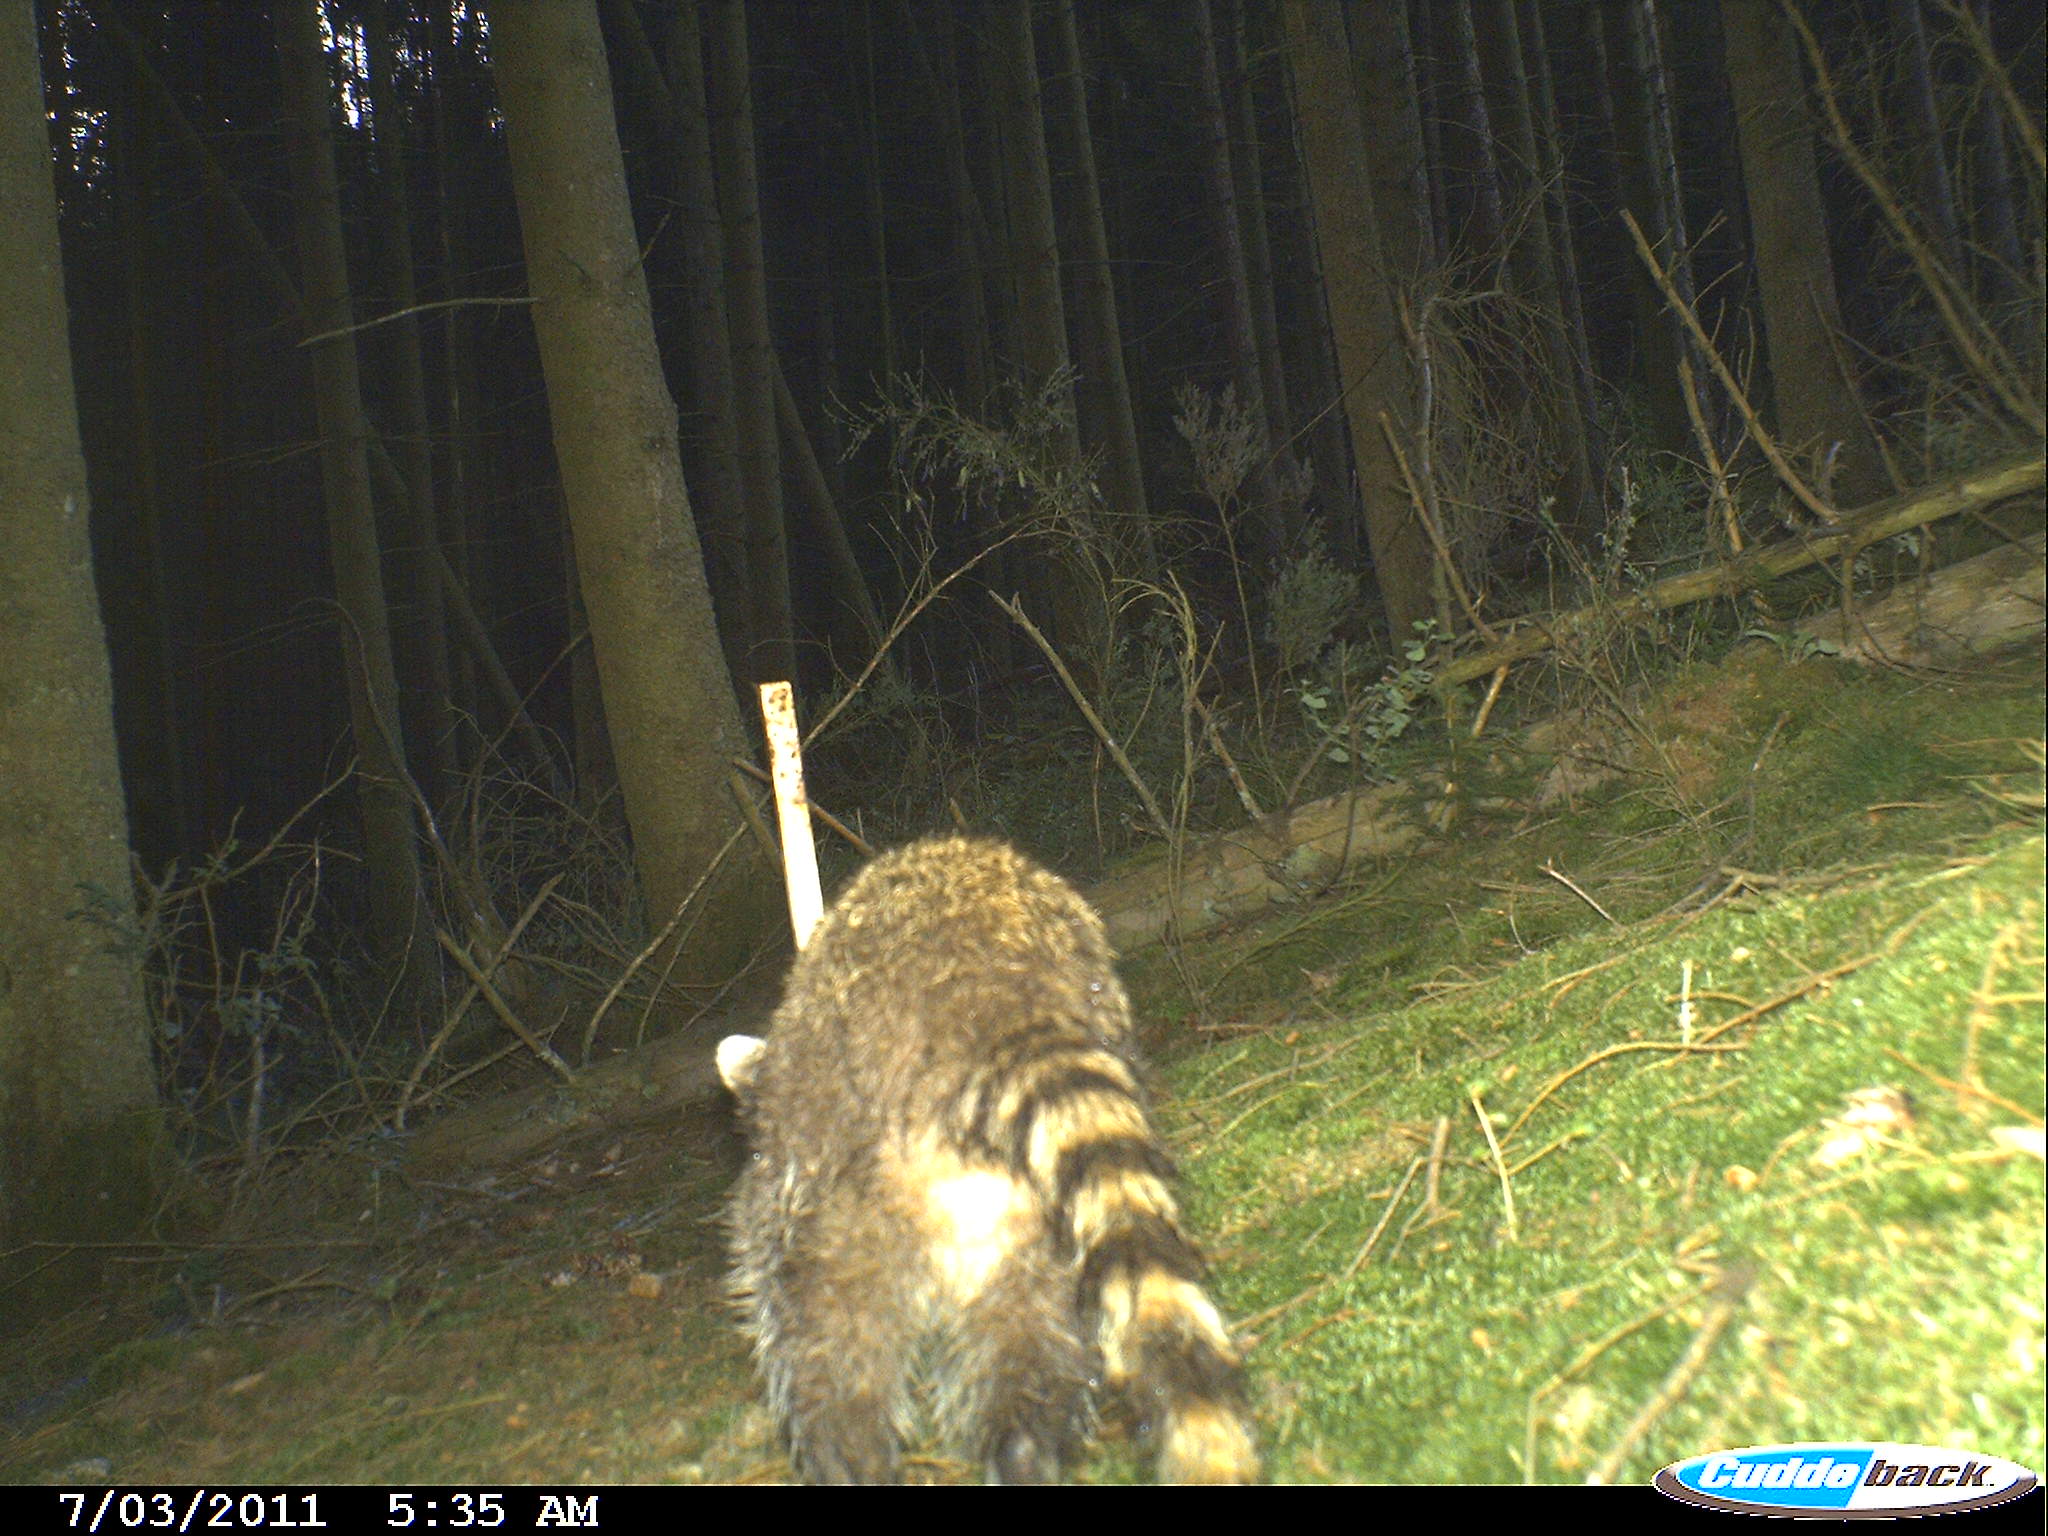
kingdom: Animalia
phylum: Chordata
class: Mammalia
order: Carnivora
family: Procyonidae
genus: Procyon
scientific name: Procyon lotor
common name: Raccoon
